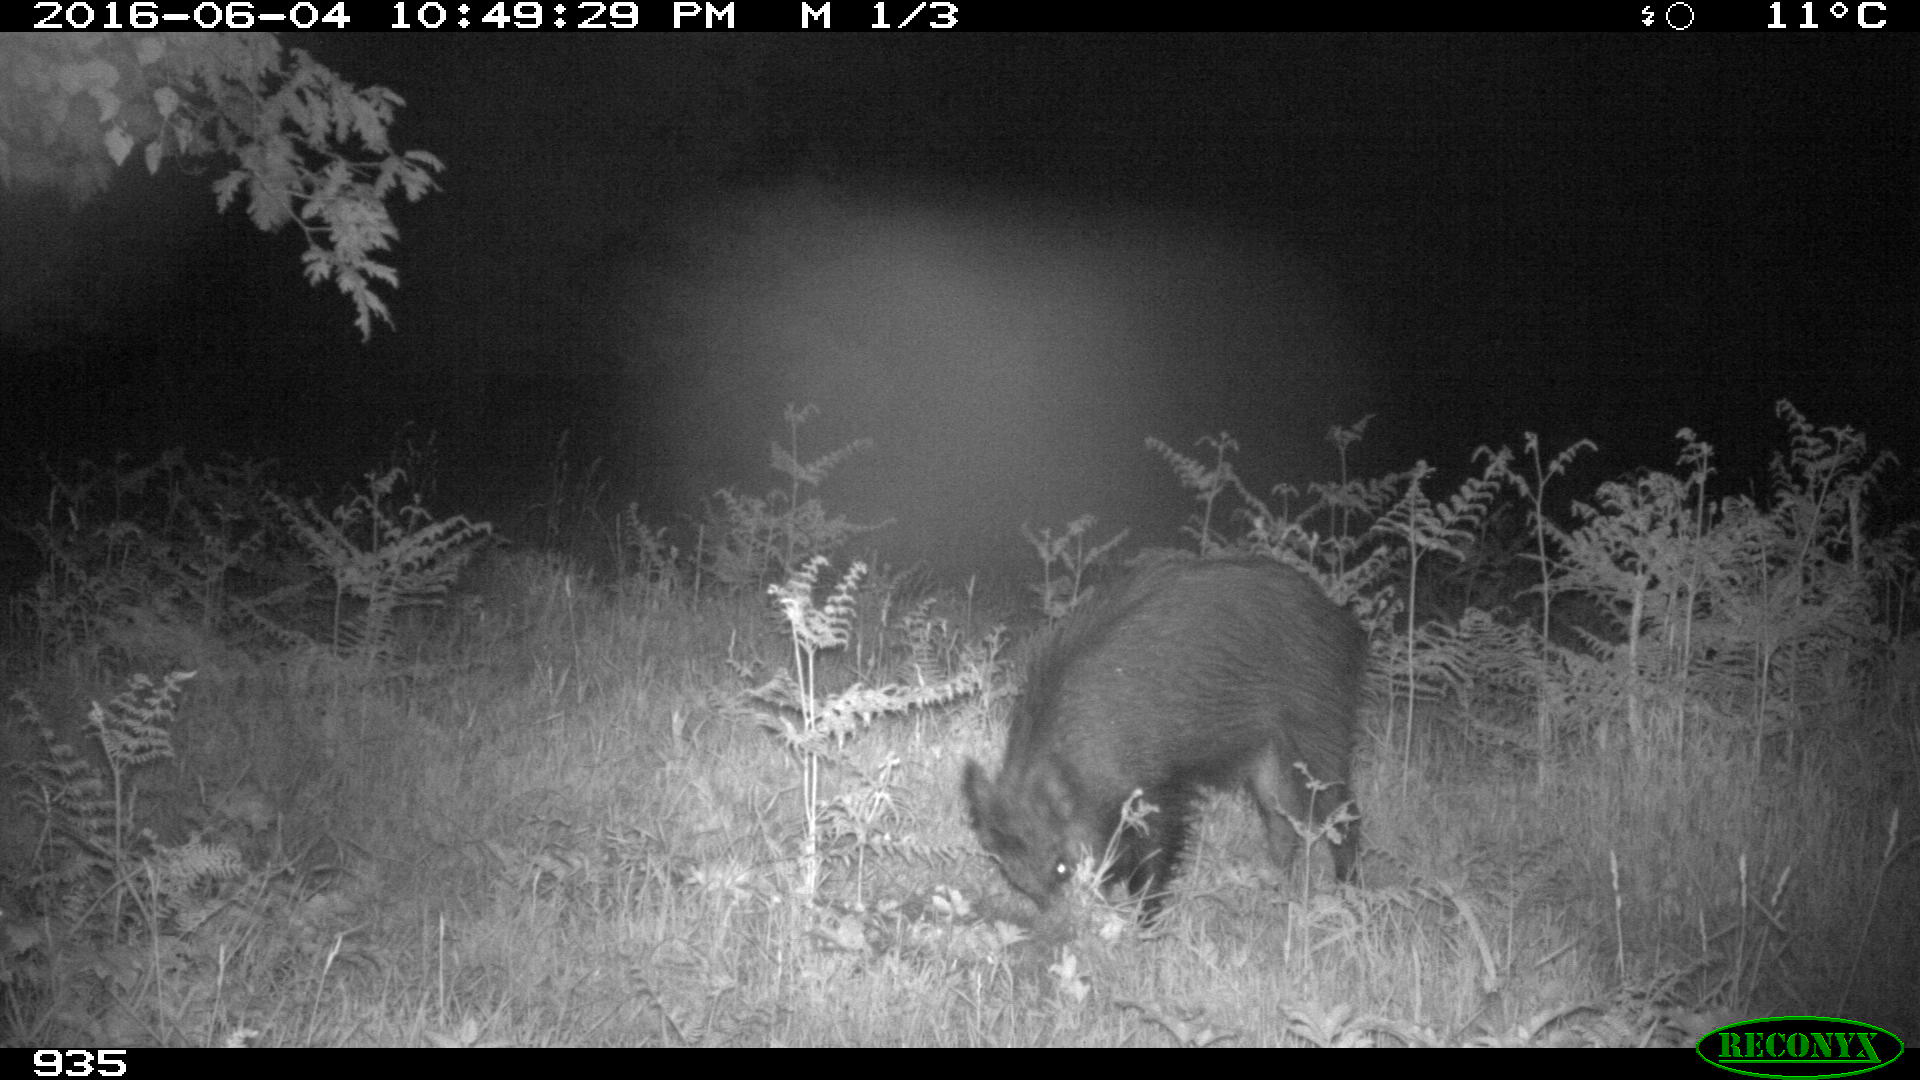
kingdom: Animalia
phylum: Chordata
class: Mammalia
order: Artiodactyla
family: Suidae
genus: Sus
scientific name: Sus scrofa
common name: Wild boar
